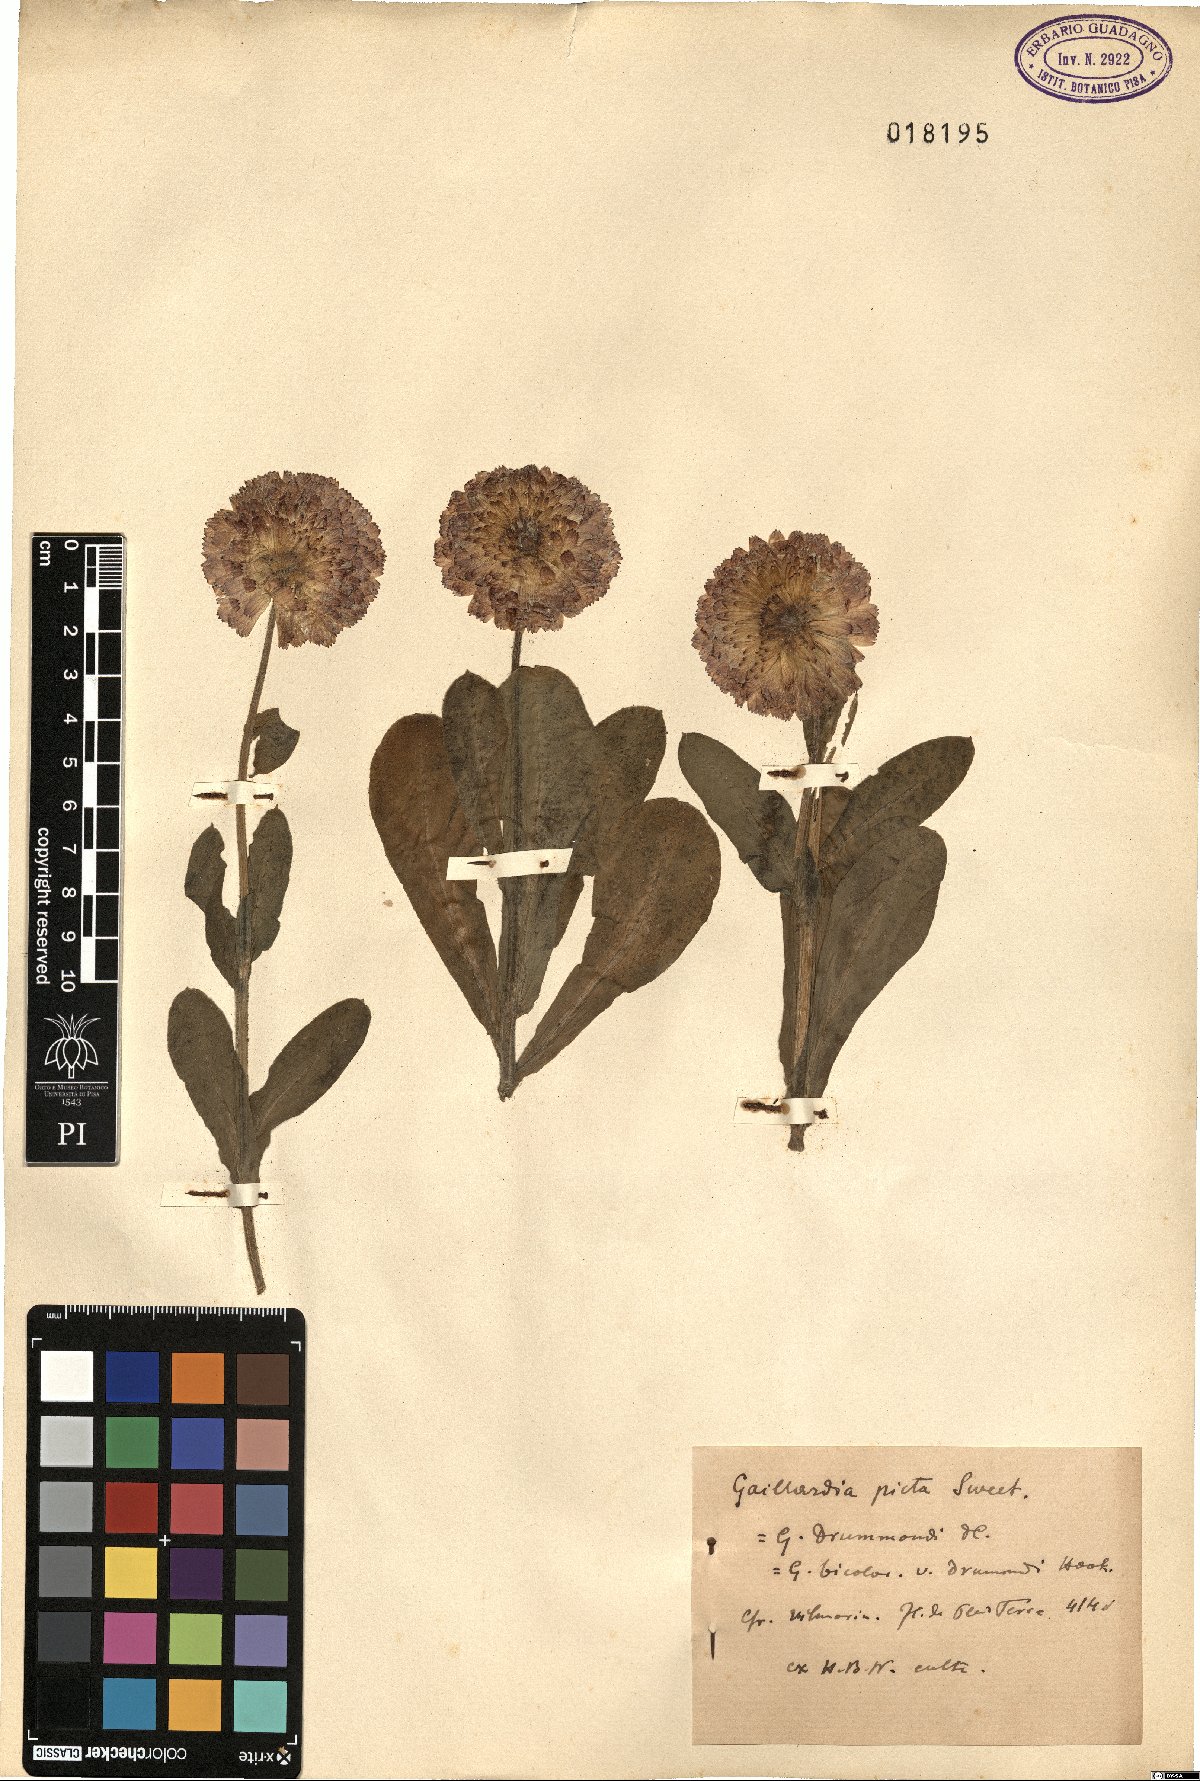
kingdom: Plantae
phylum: Tracheophyta
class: Magnoliopsida
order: Asterales
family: Asteraceae
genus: Gaillardia
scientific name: Gaillardia picta
